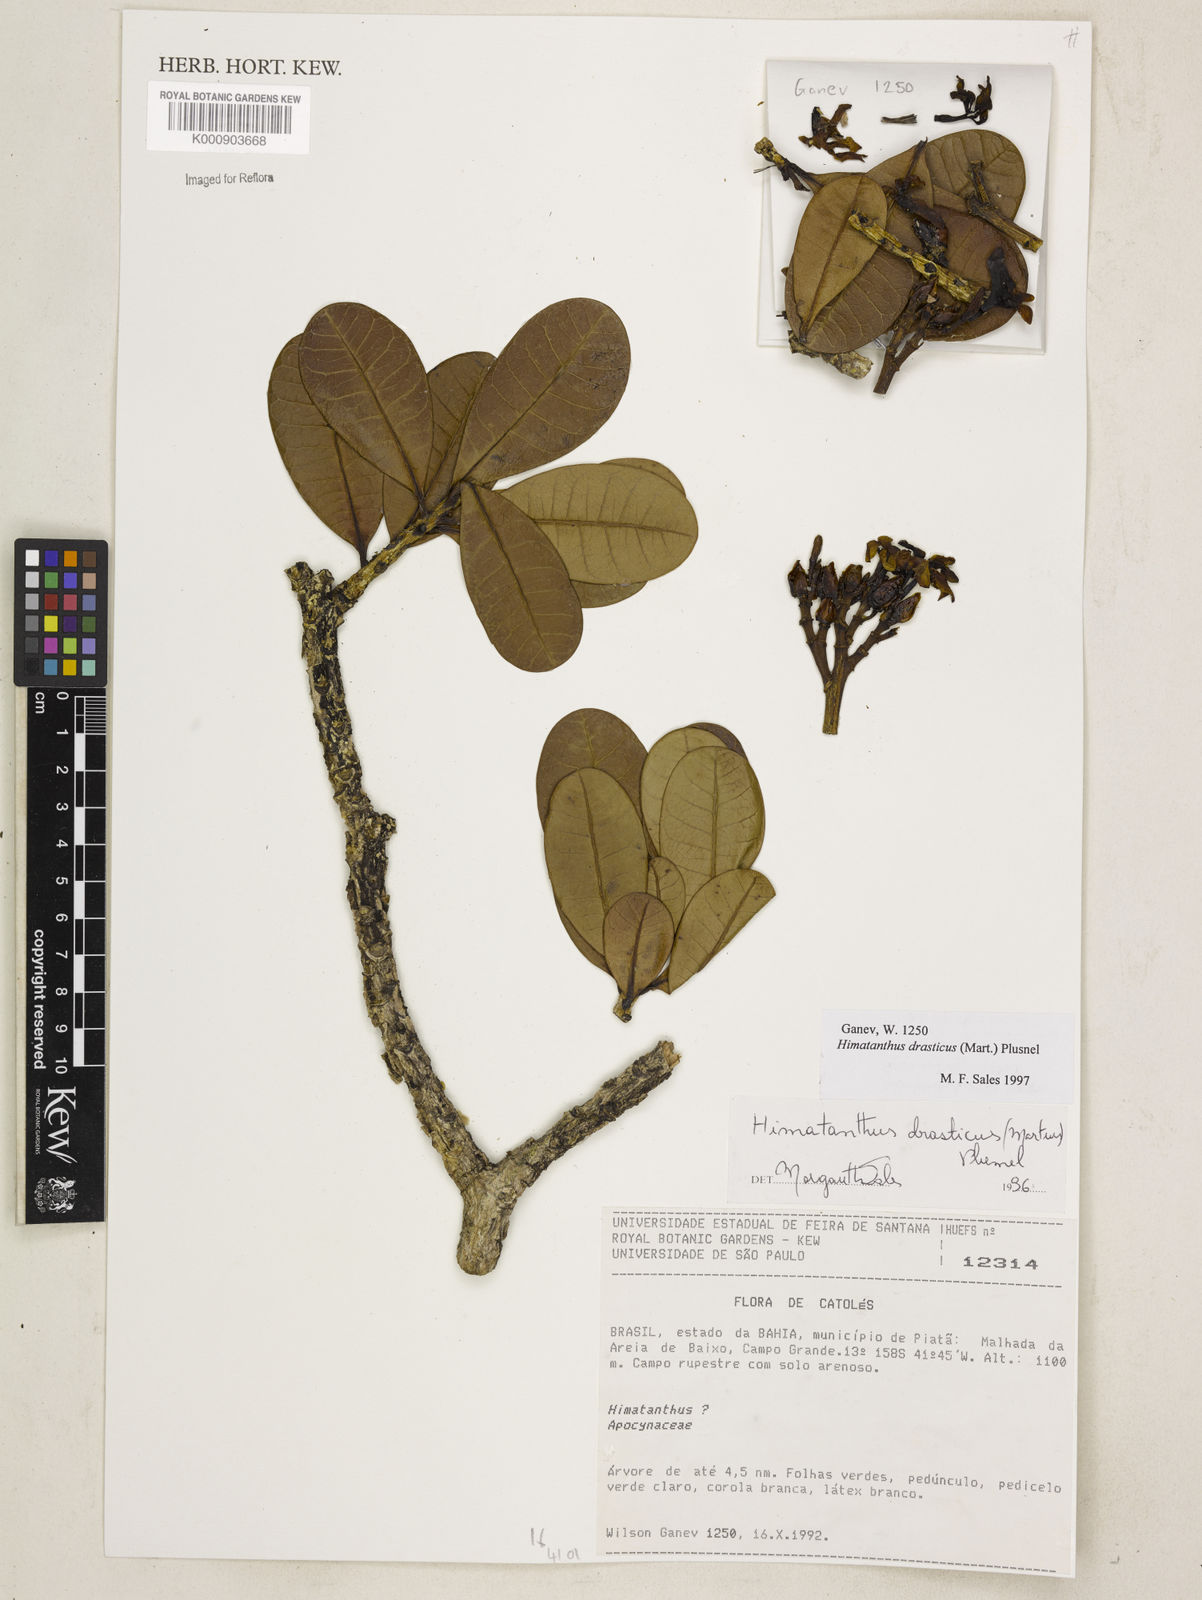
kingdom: Plantae
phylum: Tracheophyta
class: Magnoliopsida
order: Gentianales
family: Apocynaceae
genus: Himatanthus
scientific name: Himatanthus drasticus
